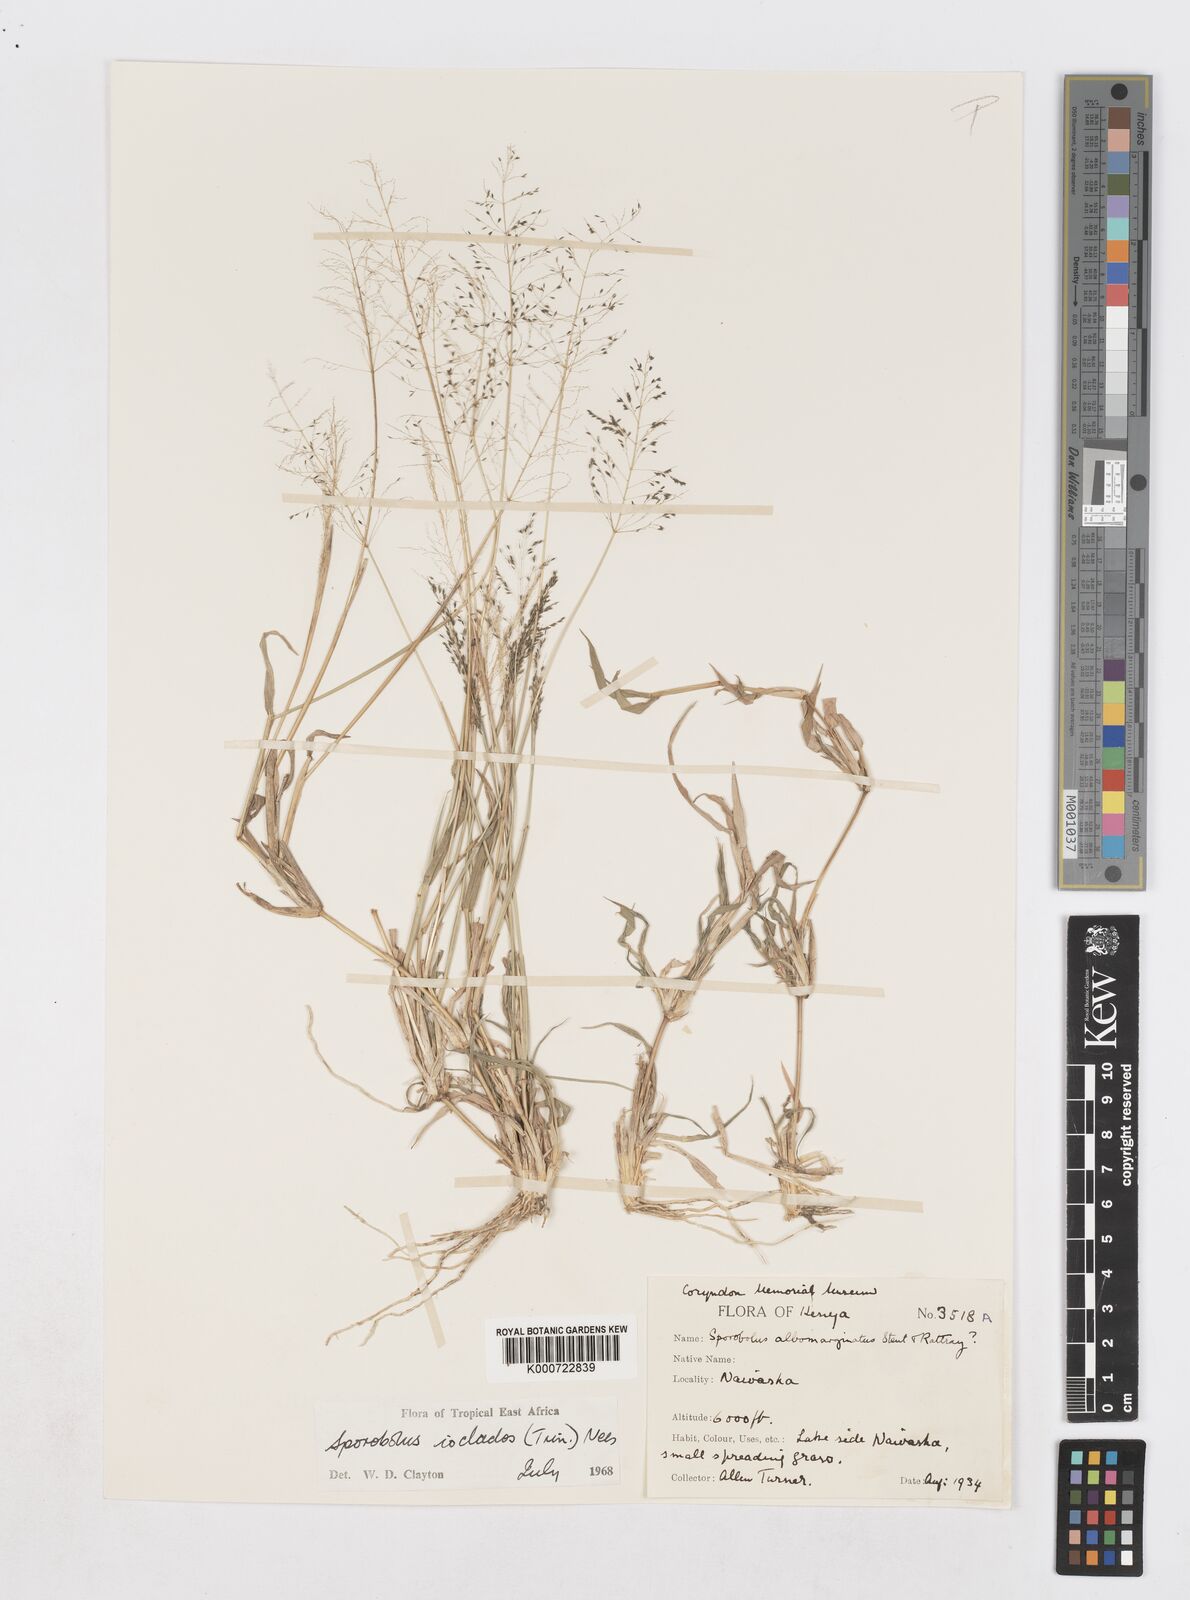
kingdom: Plantae
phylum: Tracheophyta
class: Liliopsida
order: Poales
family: Poaceae
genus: Sporobolus
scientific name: Sporobolus ioclados
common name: Pan dropseed
